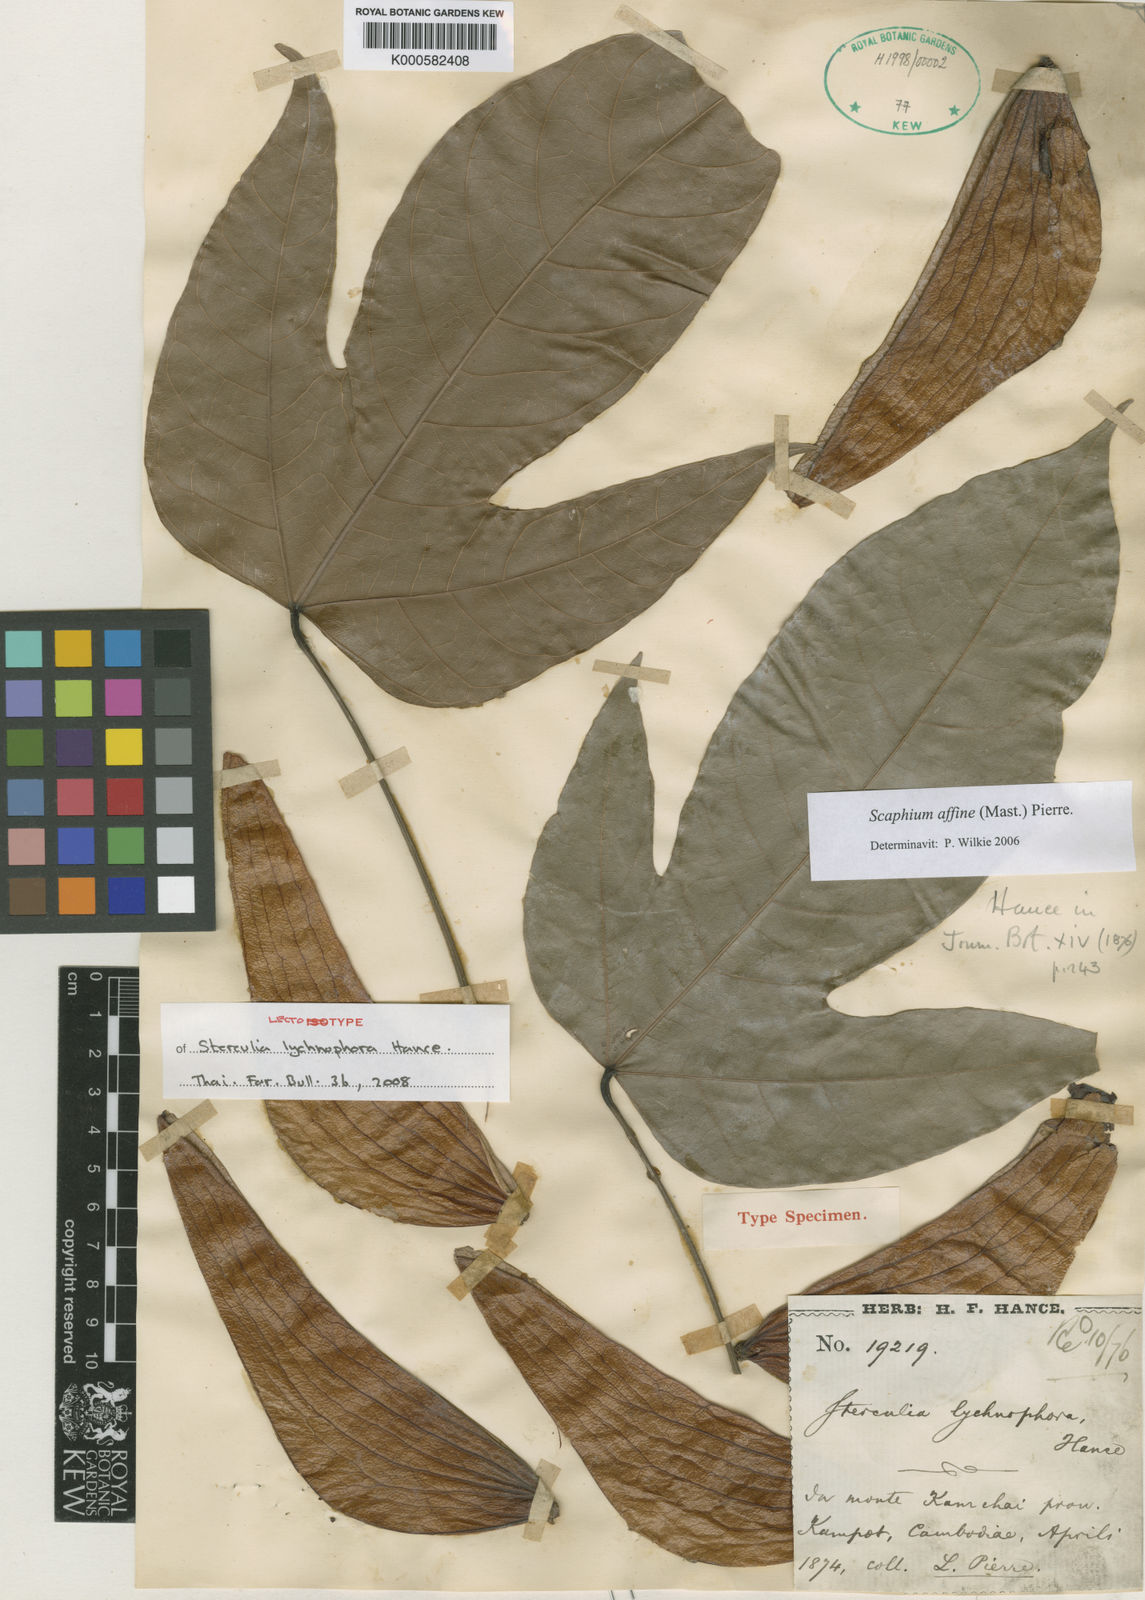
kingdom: Plantae
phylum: Tracheophyta
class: Magnoliopsida
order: Malvales
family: Malvaceae
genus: Scaphium
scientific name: Scaphium affine
